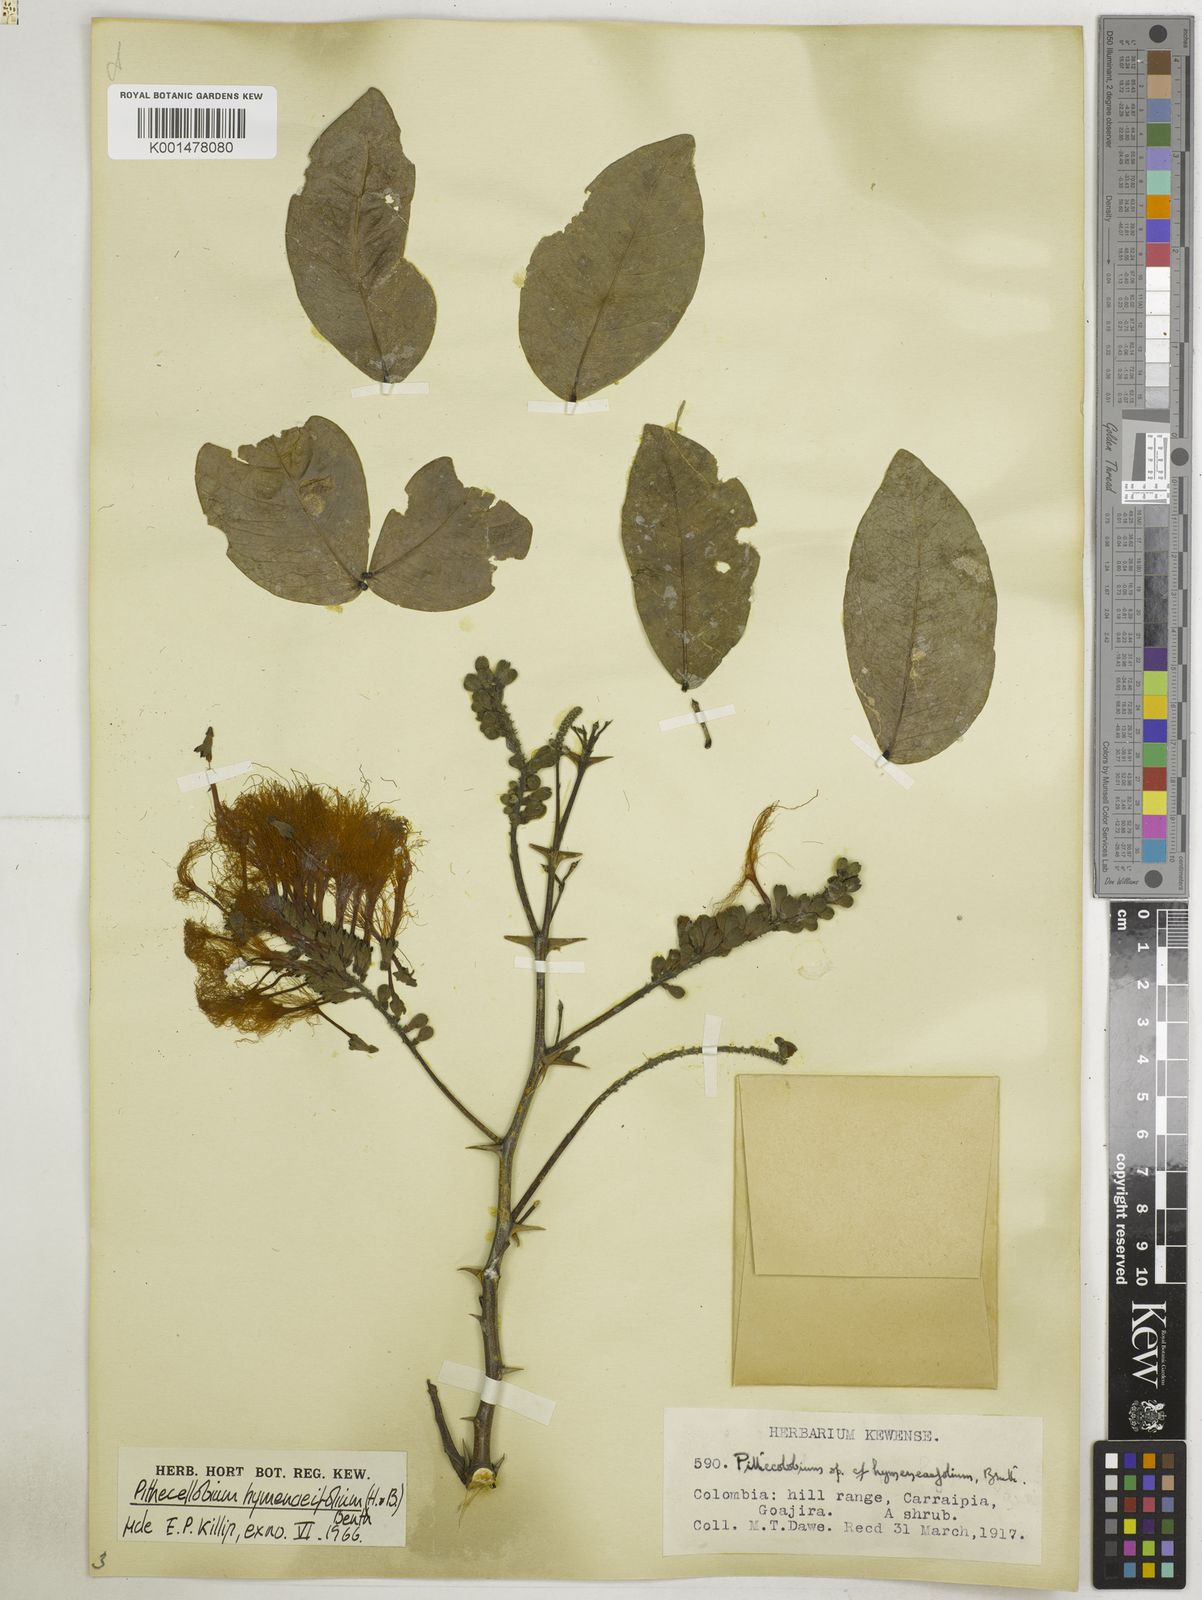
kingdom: Plantae
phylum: Tracheophyta
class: Magnoliopsida
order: Fabales
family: Fabaceae
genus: Pithecellobium
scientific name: Pithecellobium hymenaeifolium
